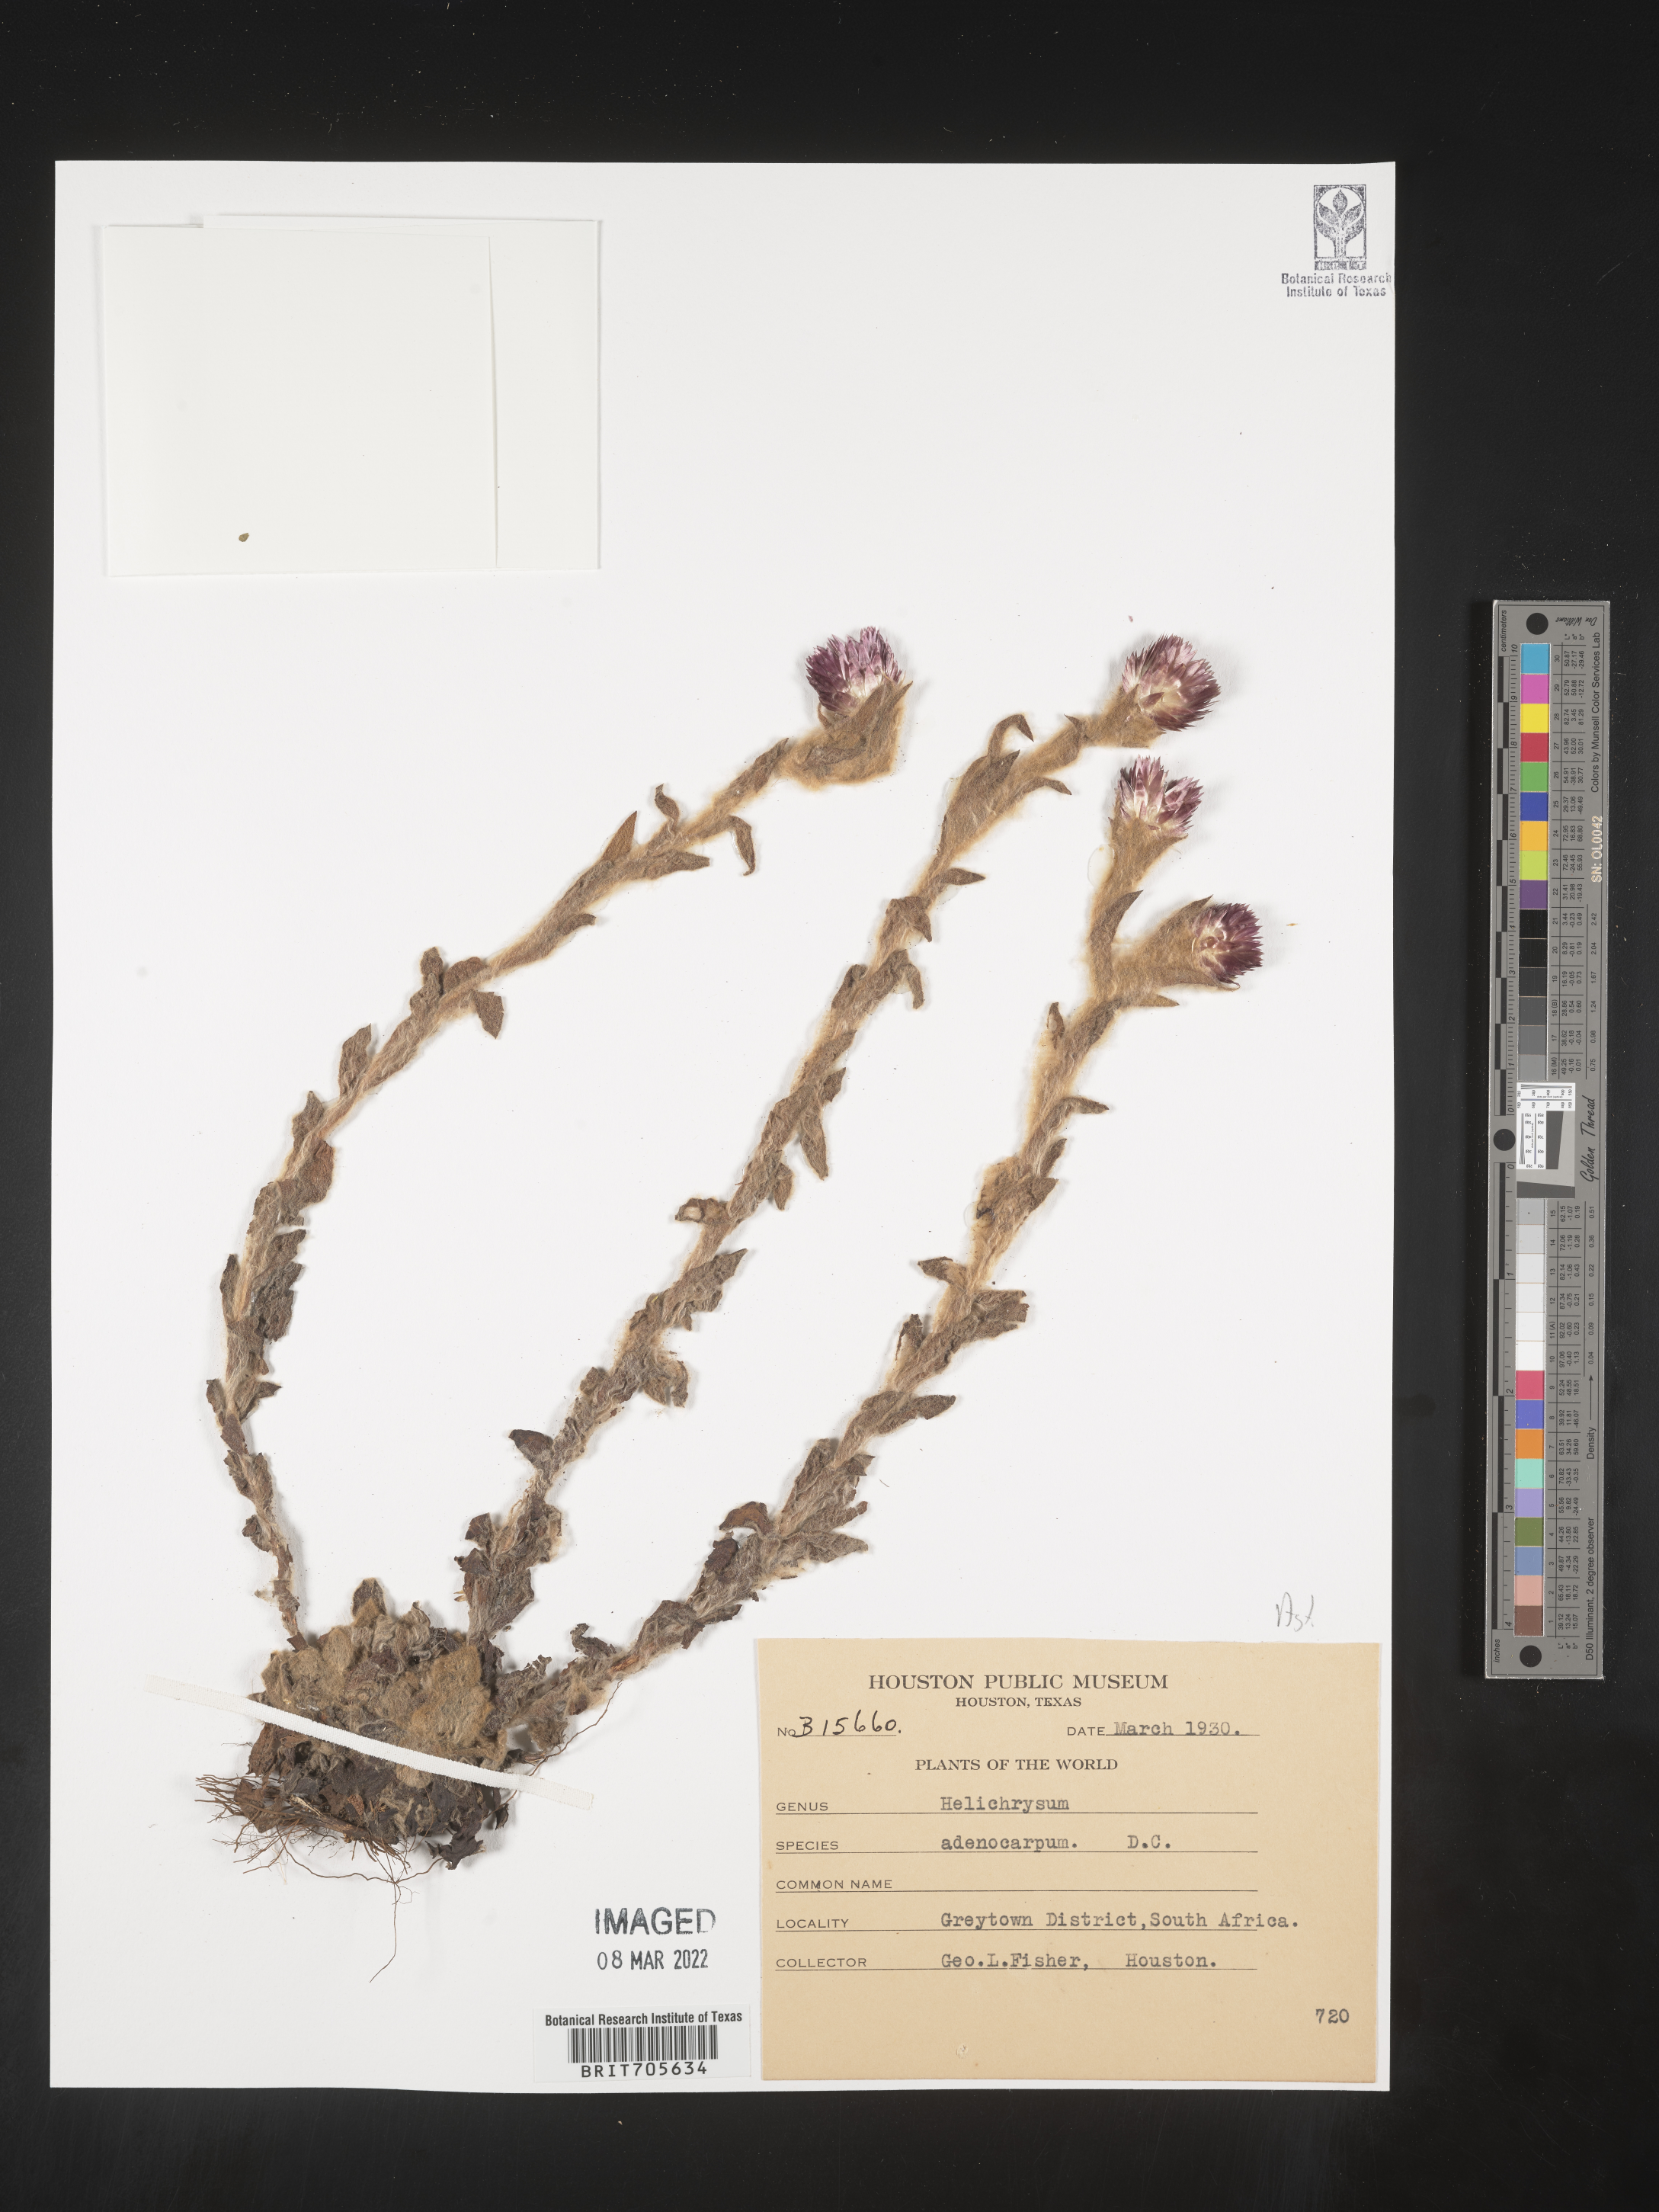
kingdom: Plantae
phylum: Tracheophyta
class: Magnoliopsida
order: Asterales
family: Asteraceae
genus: Helichrysum
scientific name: Helichrysum
